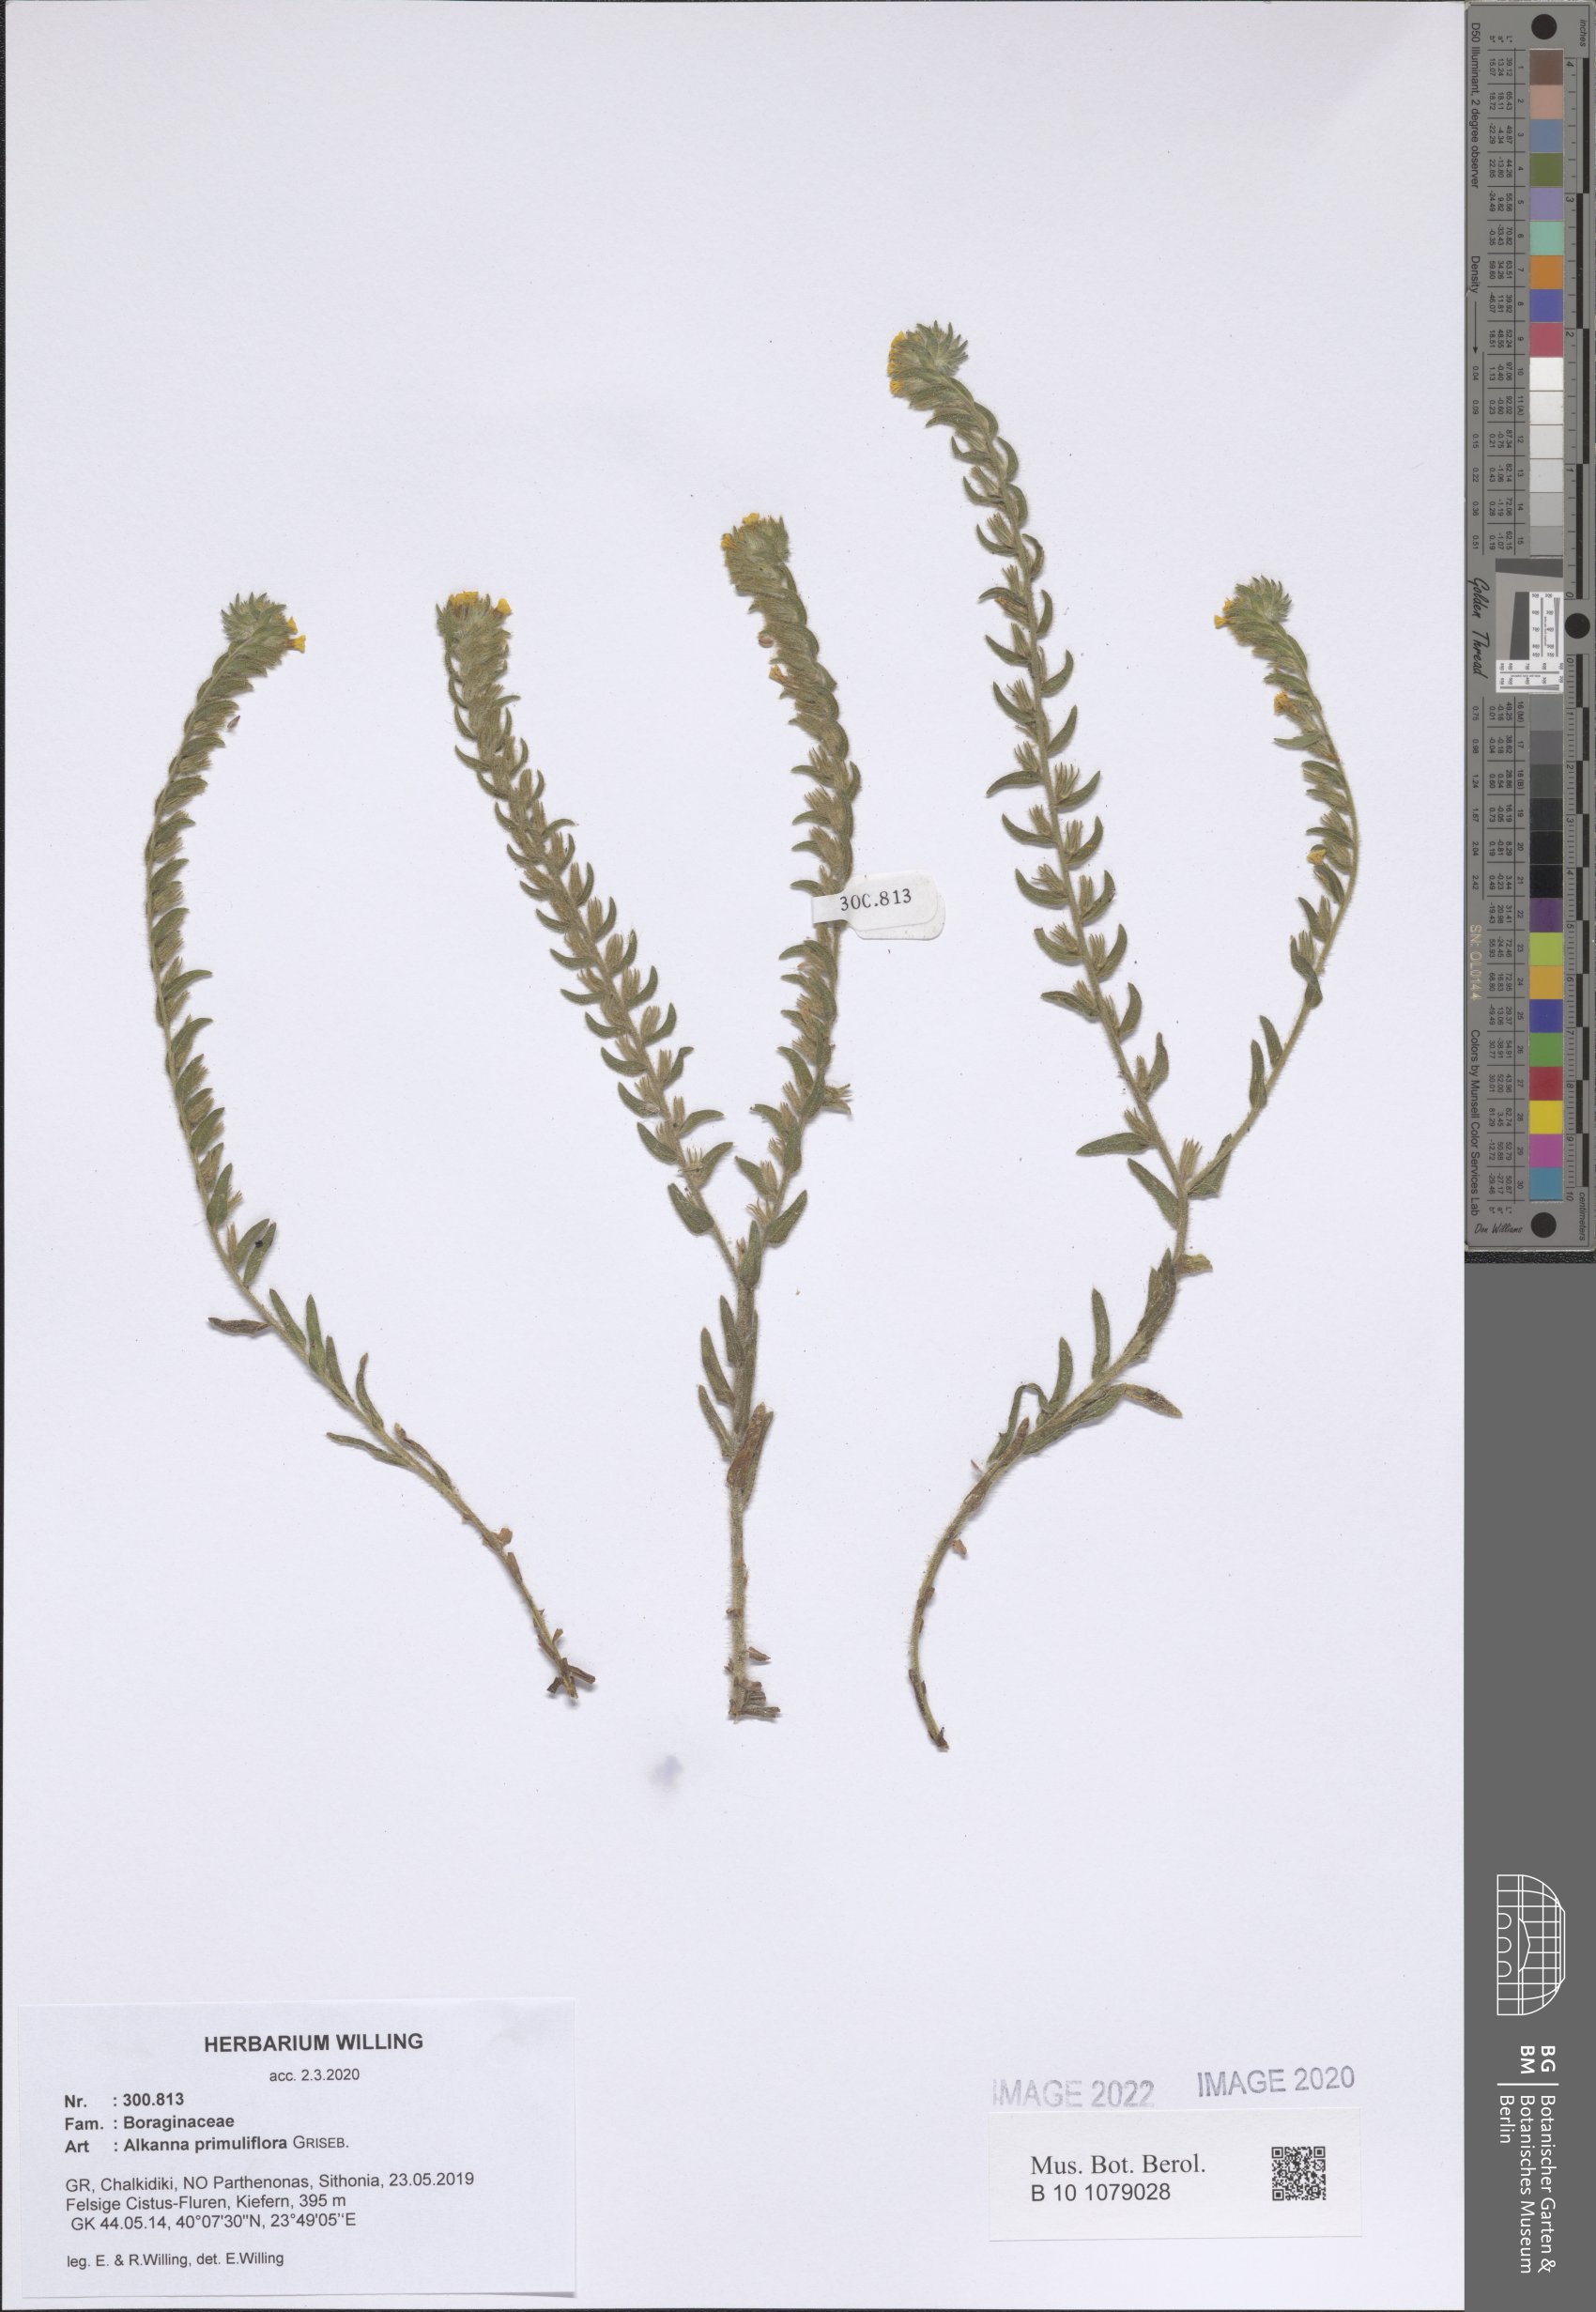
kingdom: Plantae
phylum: Tracheophyta
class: Magnoliopsida
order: Boraginales
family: Boraginaceae
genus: Alkanna
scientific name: Alkanna primuliflora
